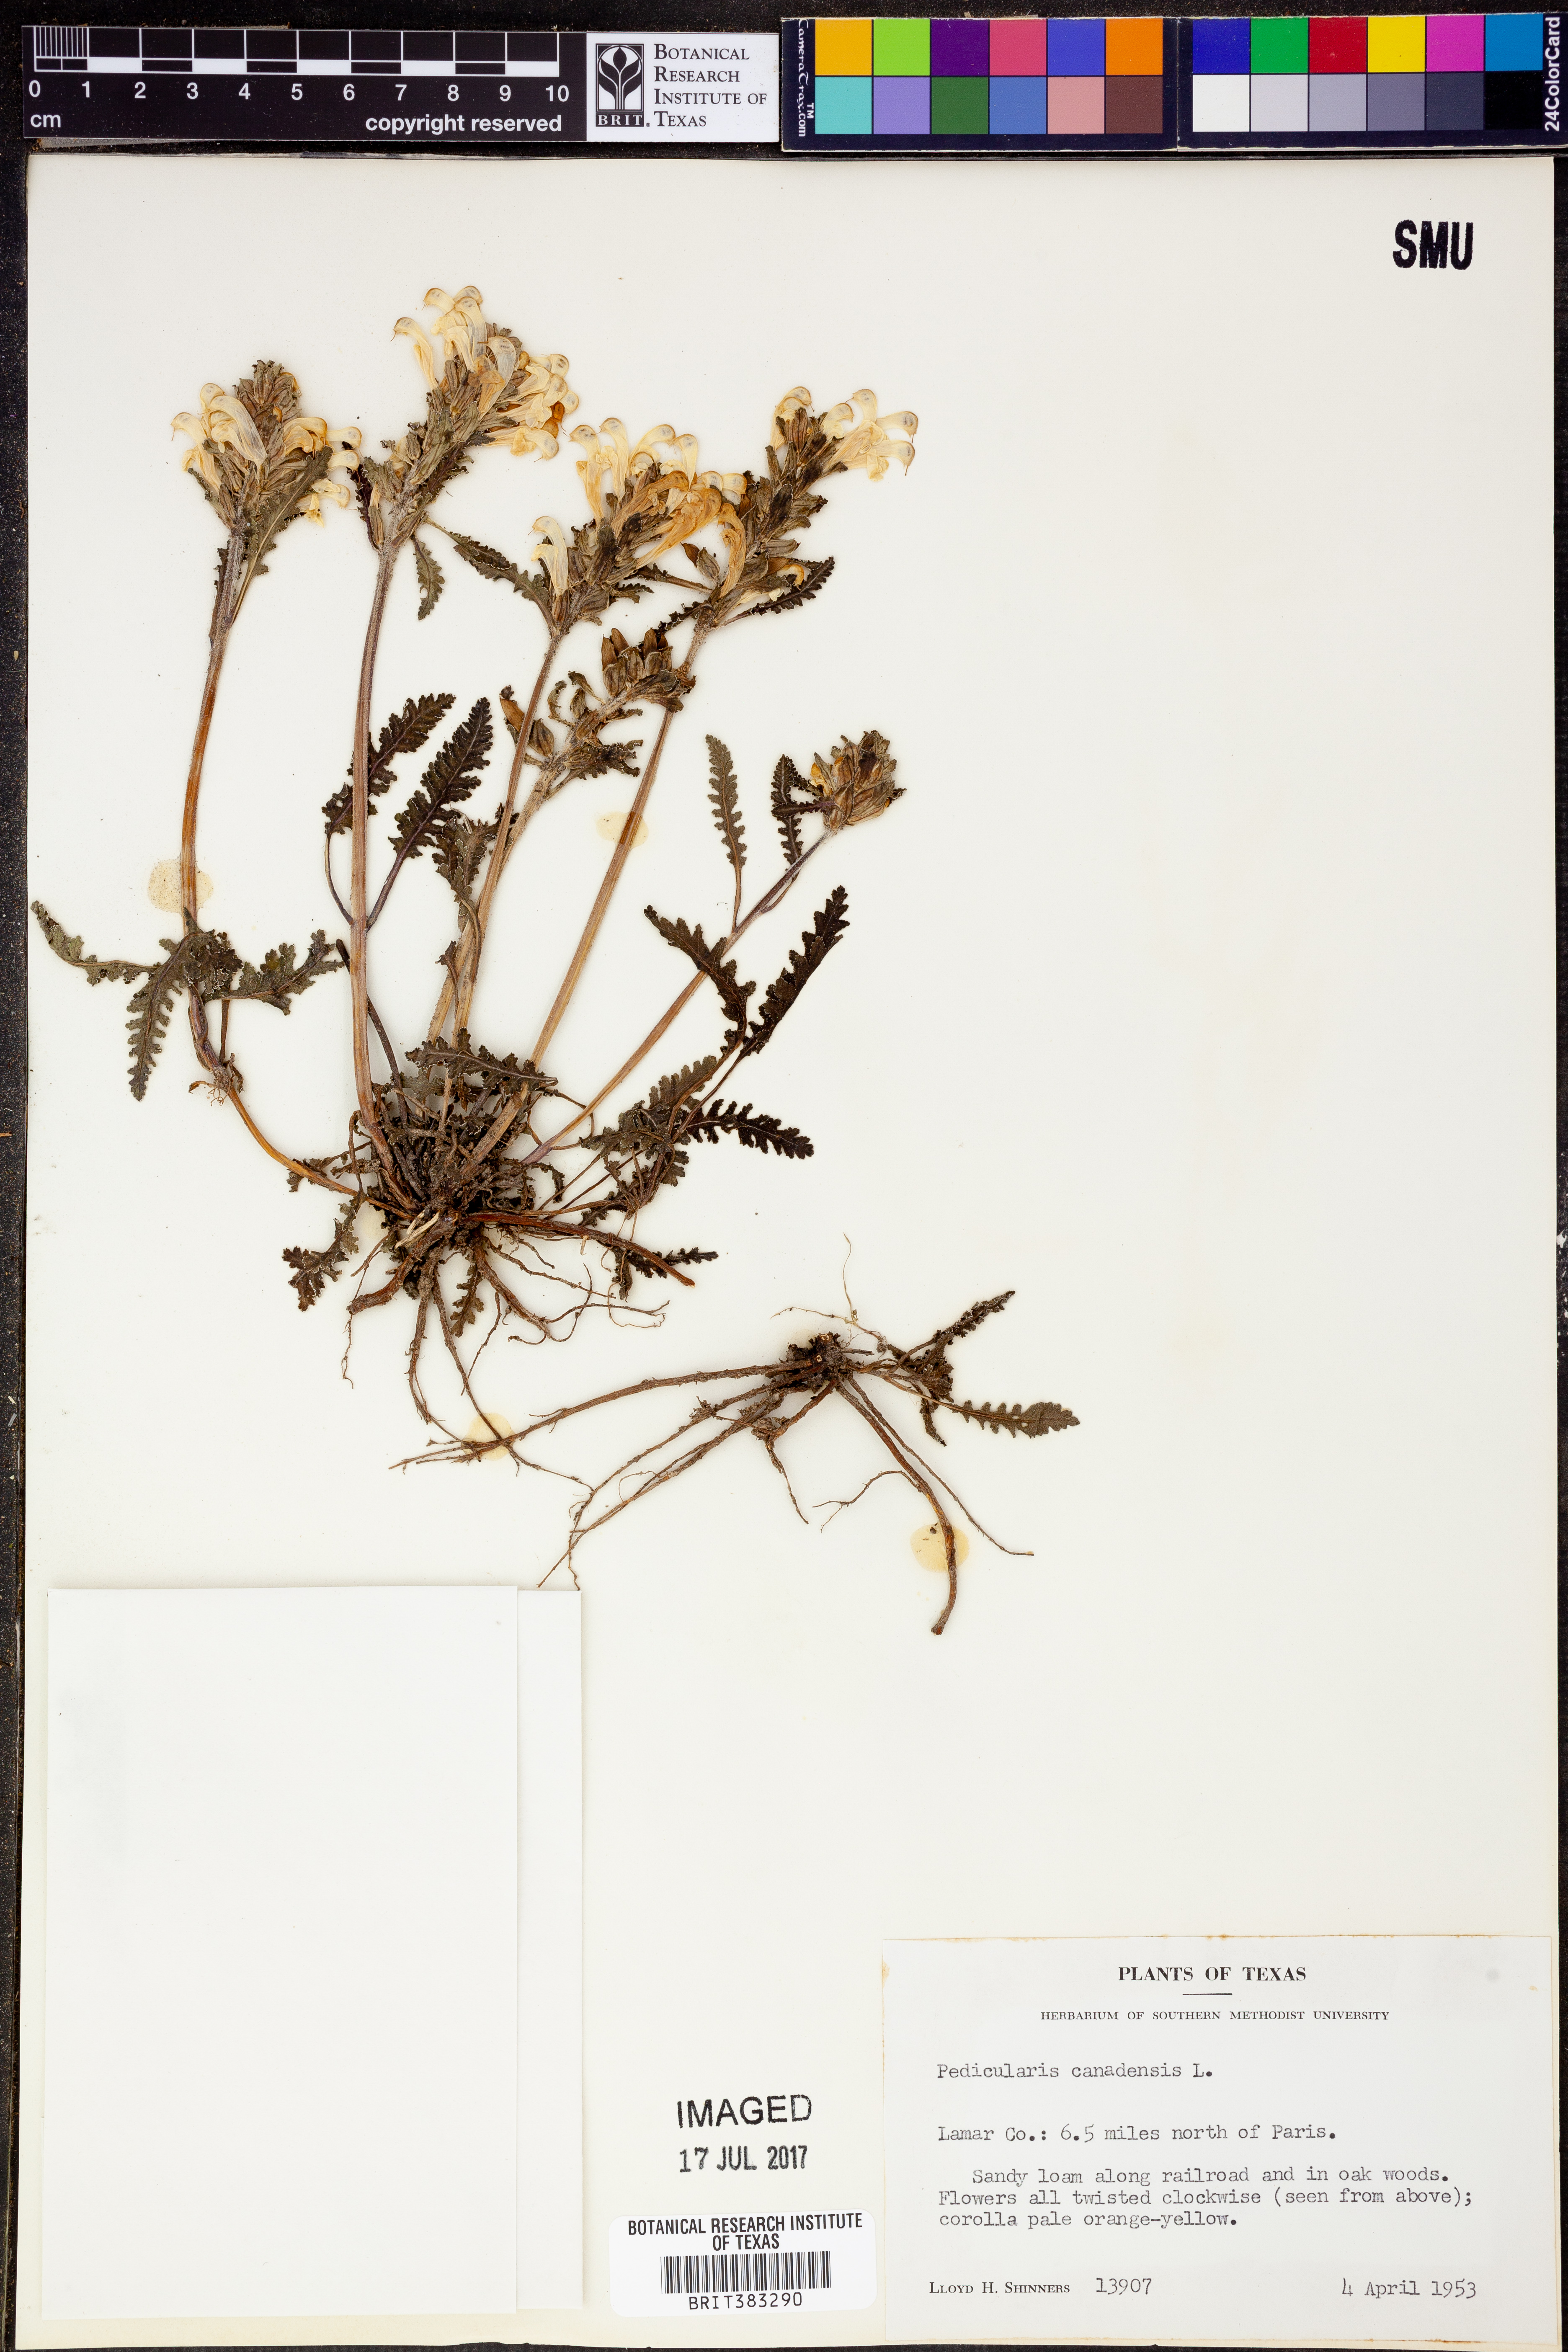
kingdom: Plantae
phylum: Tracheophyta
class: Magnoliopsida
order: Lamiales
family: Orobanchaceae
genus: Pedicularis
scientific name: Pedicularis canadensis
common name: Early lousewort
